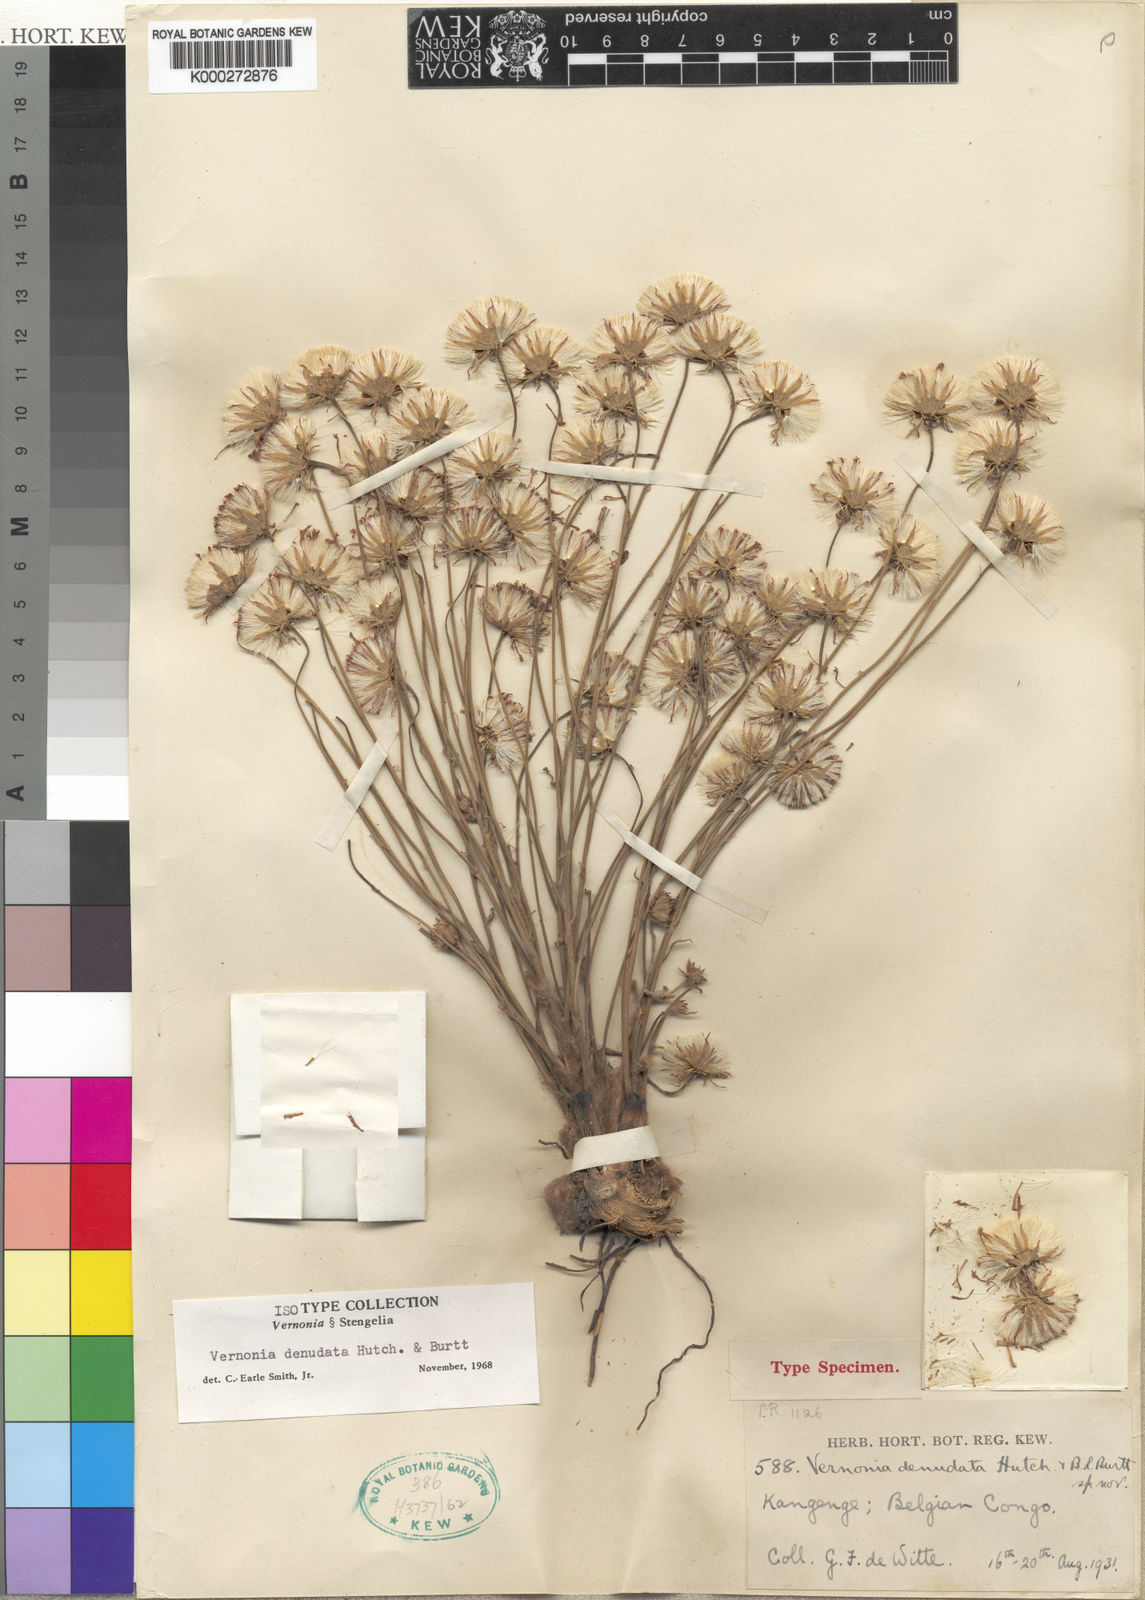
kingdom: Plantae
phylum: Tracheophyta
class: Magnoliopsida
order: Asterales
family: Asteraceae
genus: Vernonella
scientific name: Vernonella denudata
